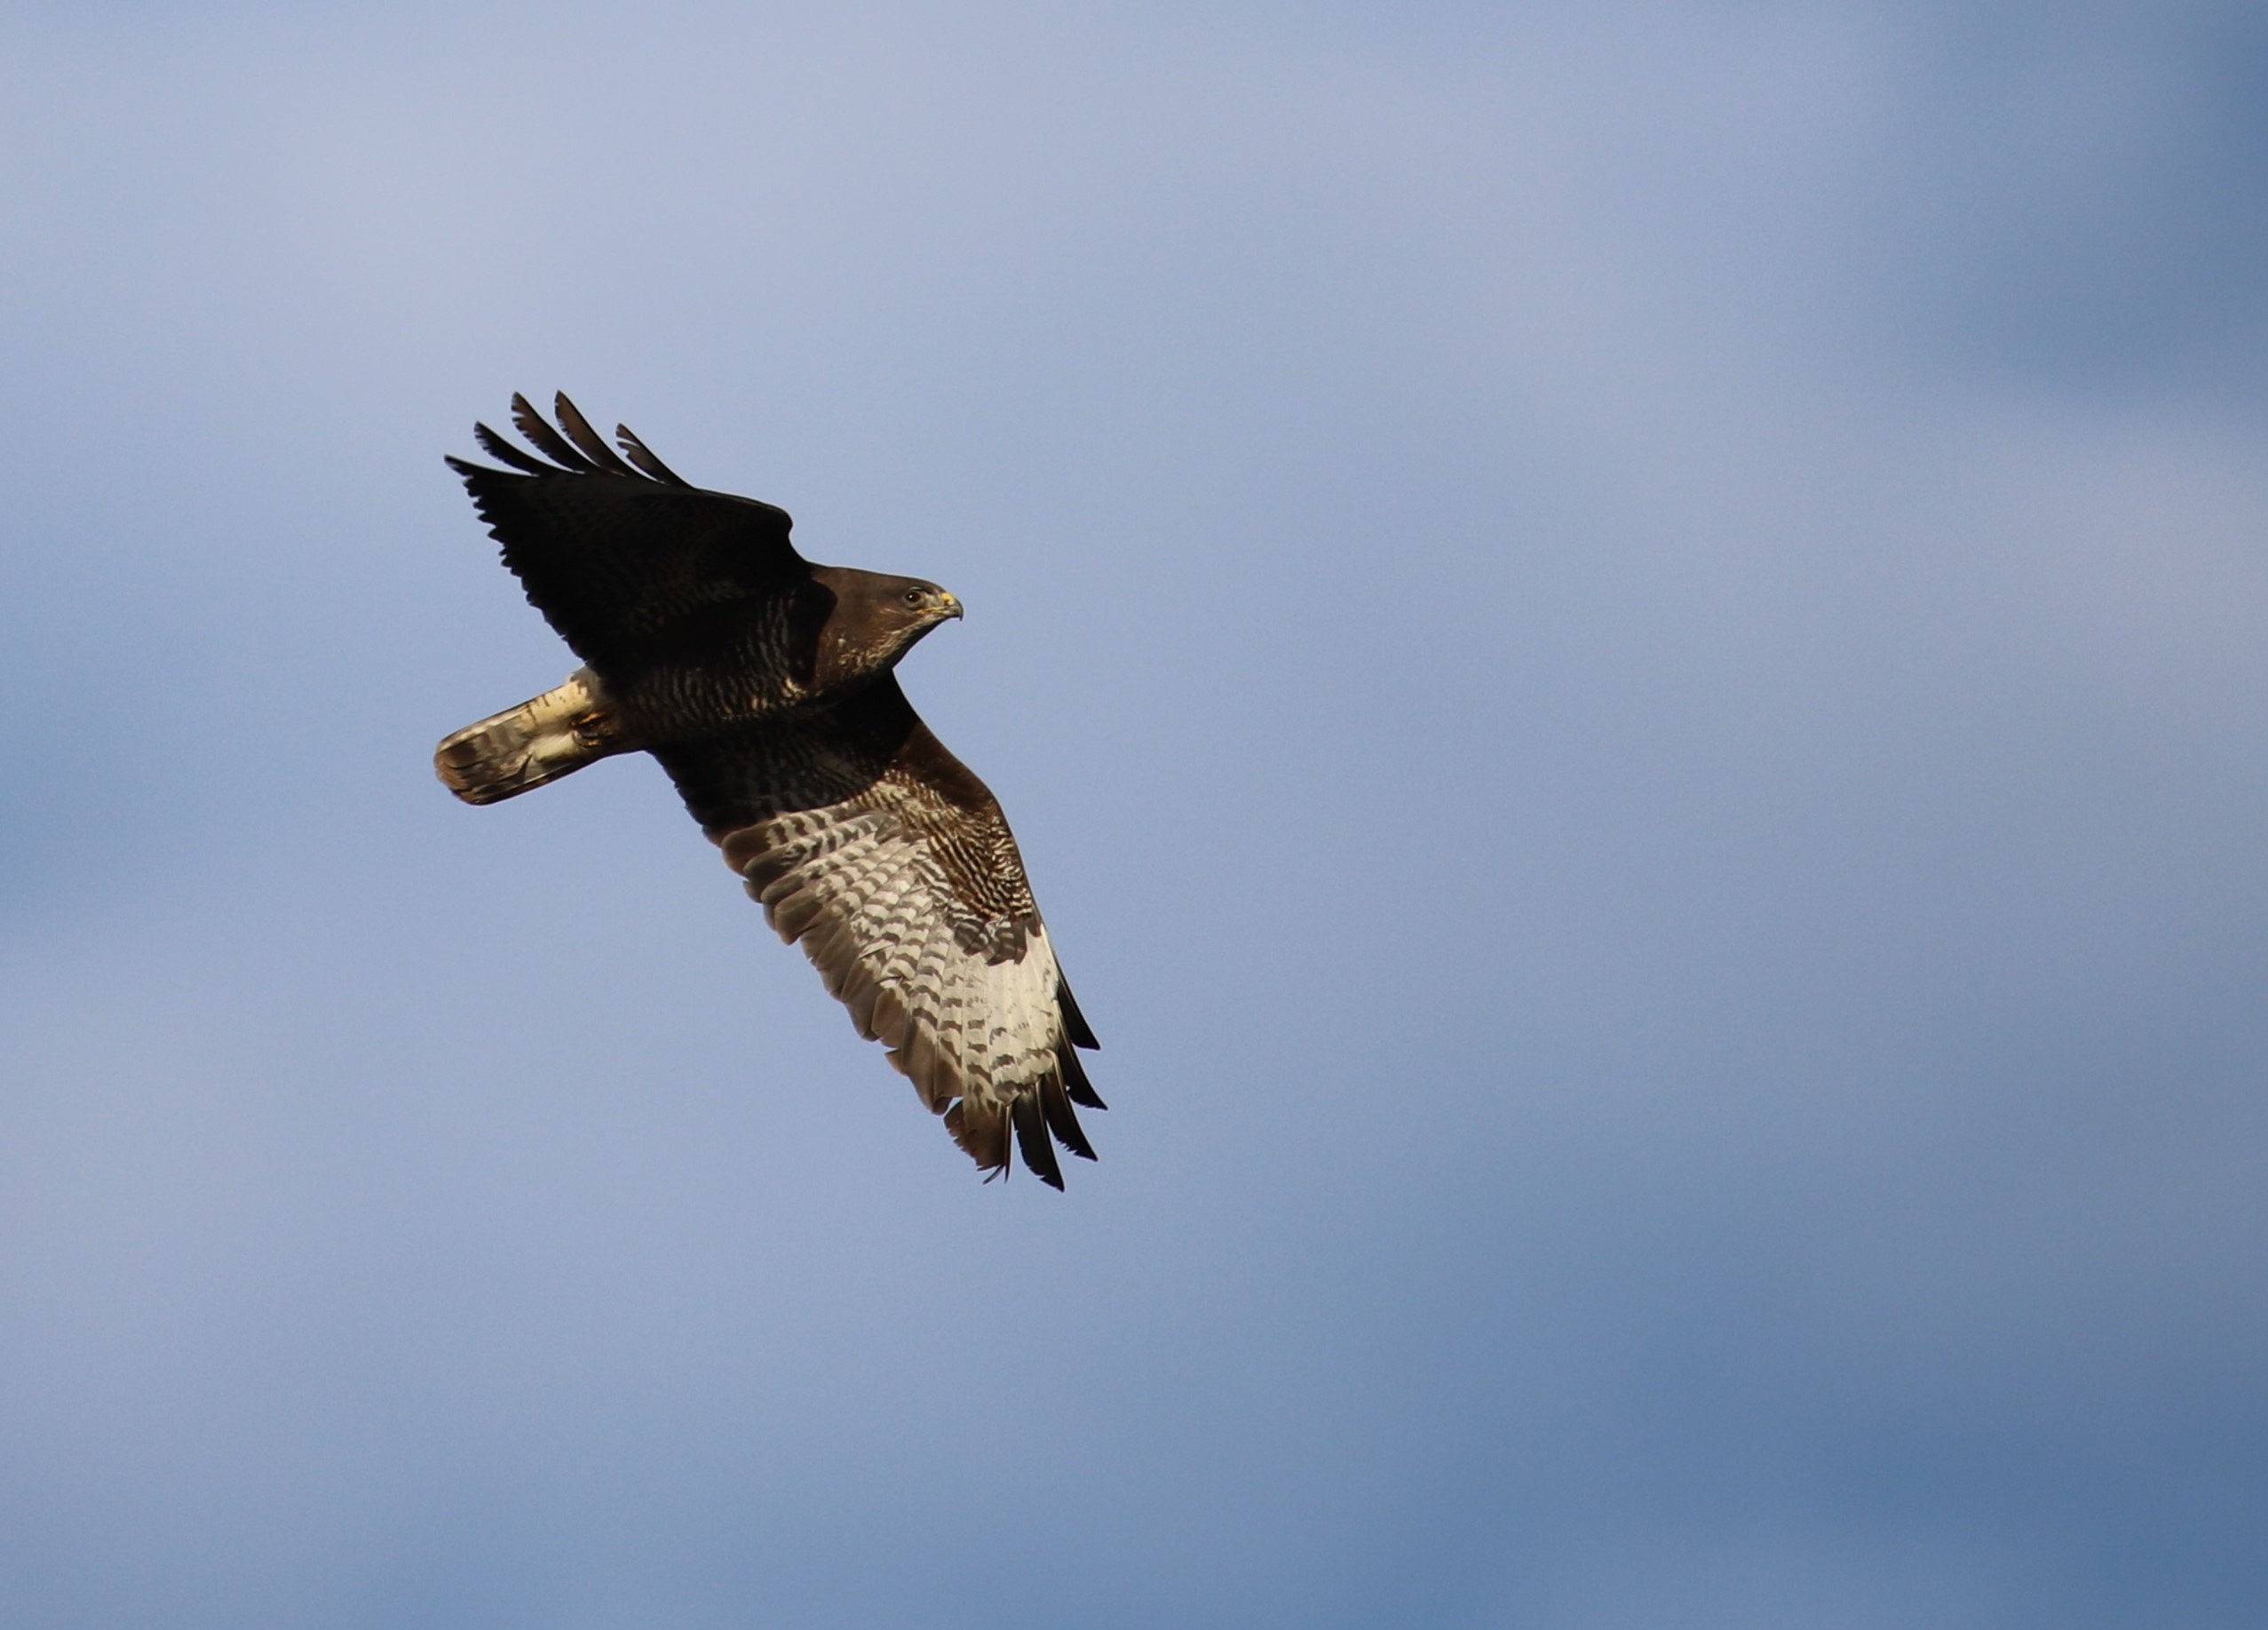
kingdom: Animalia
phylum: Chordata
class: Aves
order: Accipitriformes
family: Accipitridae
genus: Buteo
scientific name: Buteo buteo
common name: Musvåge
